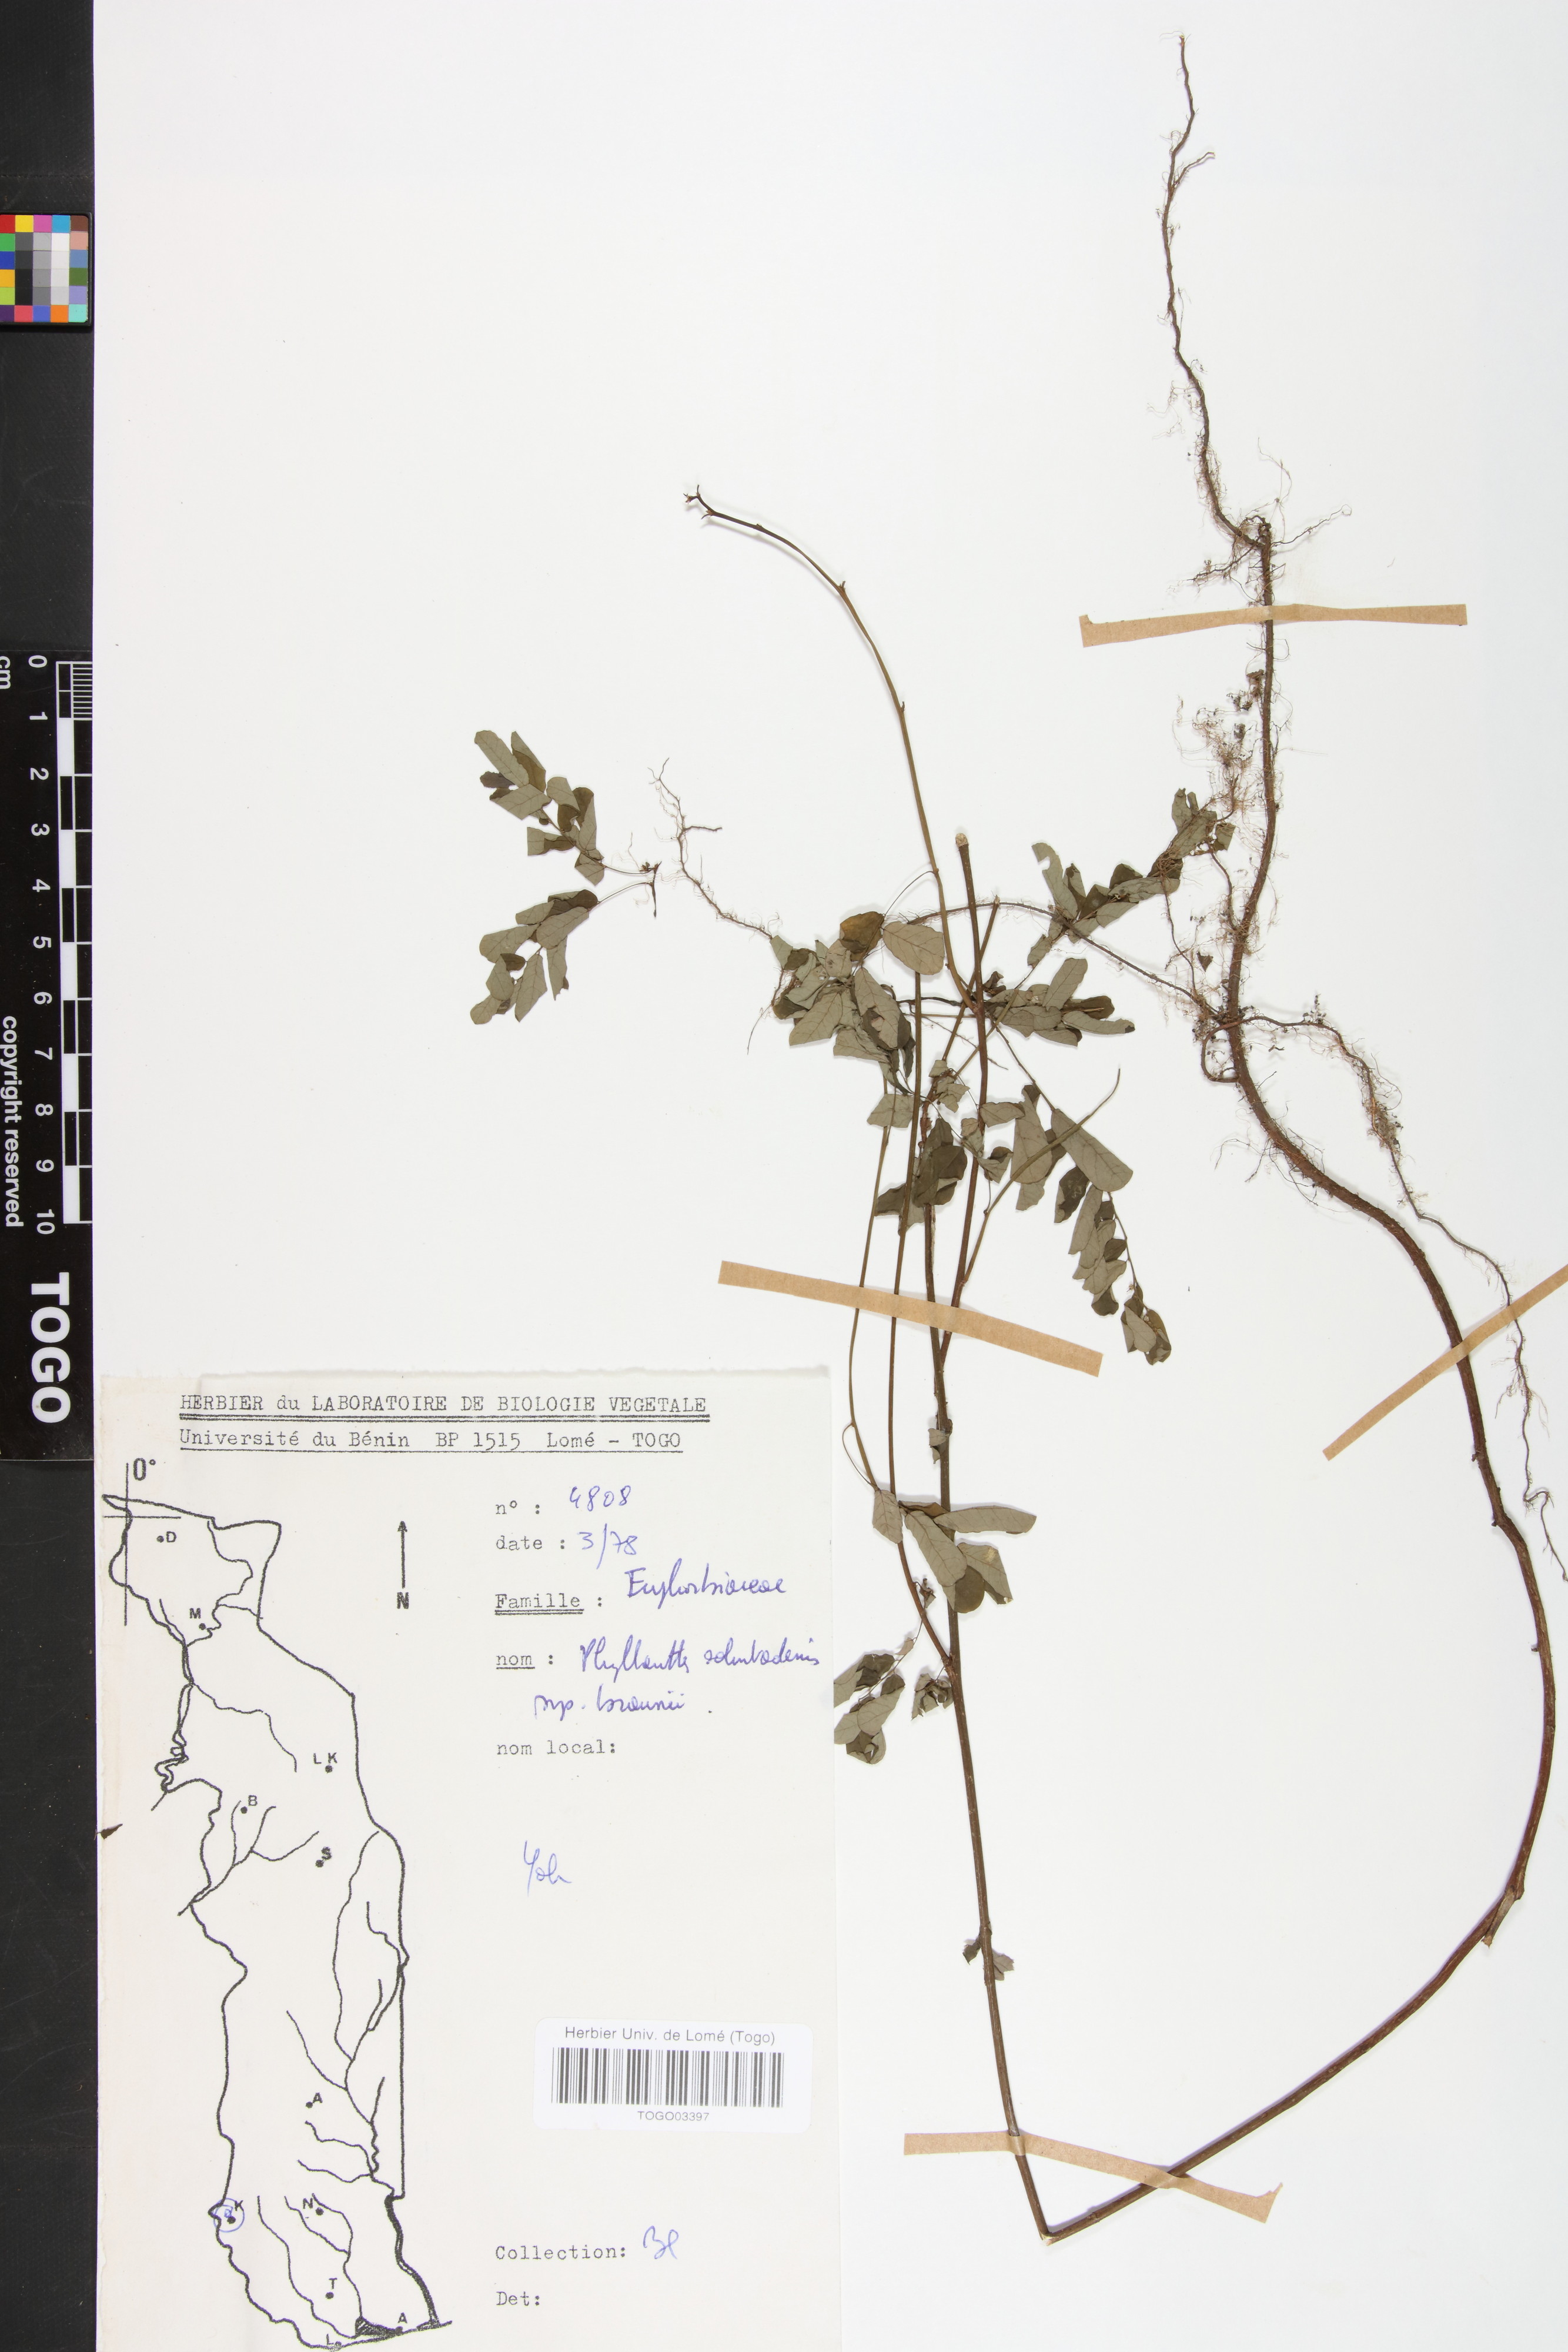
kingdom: Plantae
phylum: Tracheophyta
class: Magnoliopsida
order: Malpighiales
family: Phyllanthaceae
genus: Phyllanthus
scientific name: Phyllanthus odontadenius
